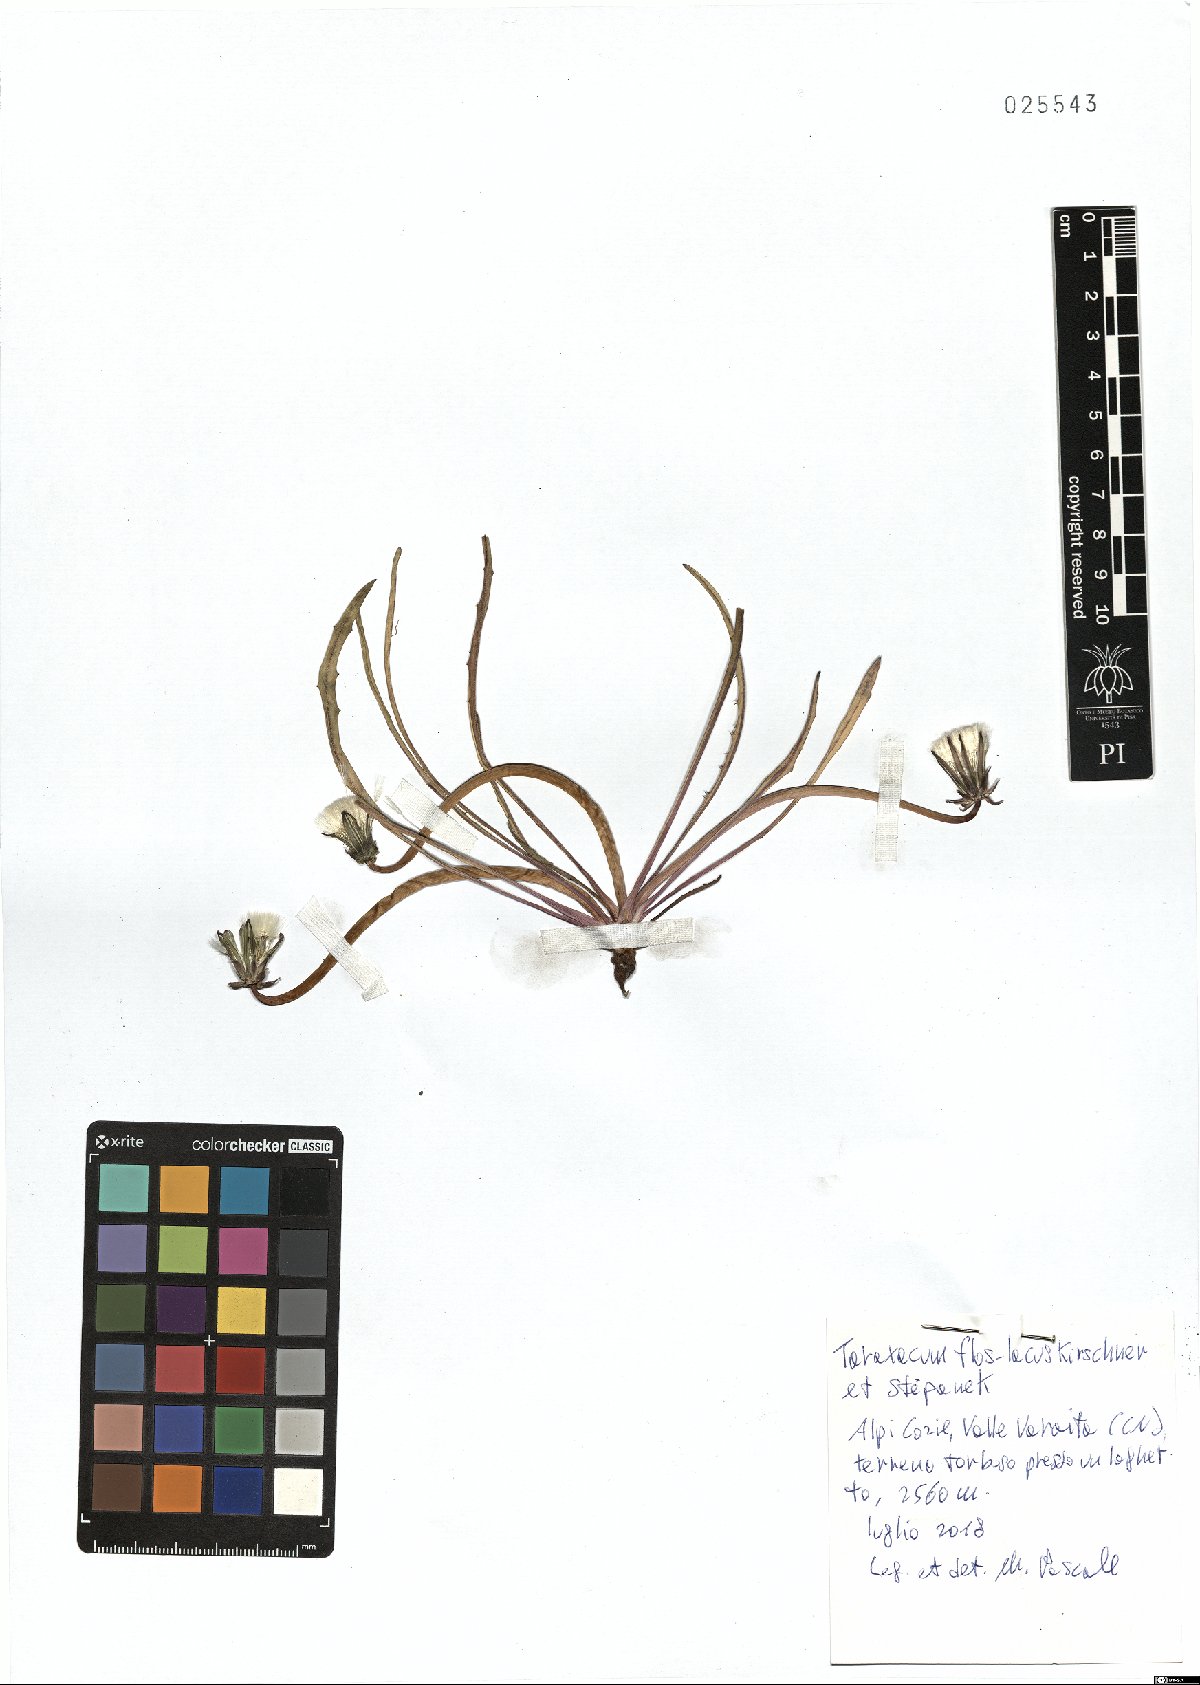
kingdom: Plantae
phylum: Tracheophyta
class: Magnoliopsida
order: Asterales
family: Asteraceae
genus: Taraxacum
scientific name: Taraxacum flos-lacus
